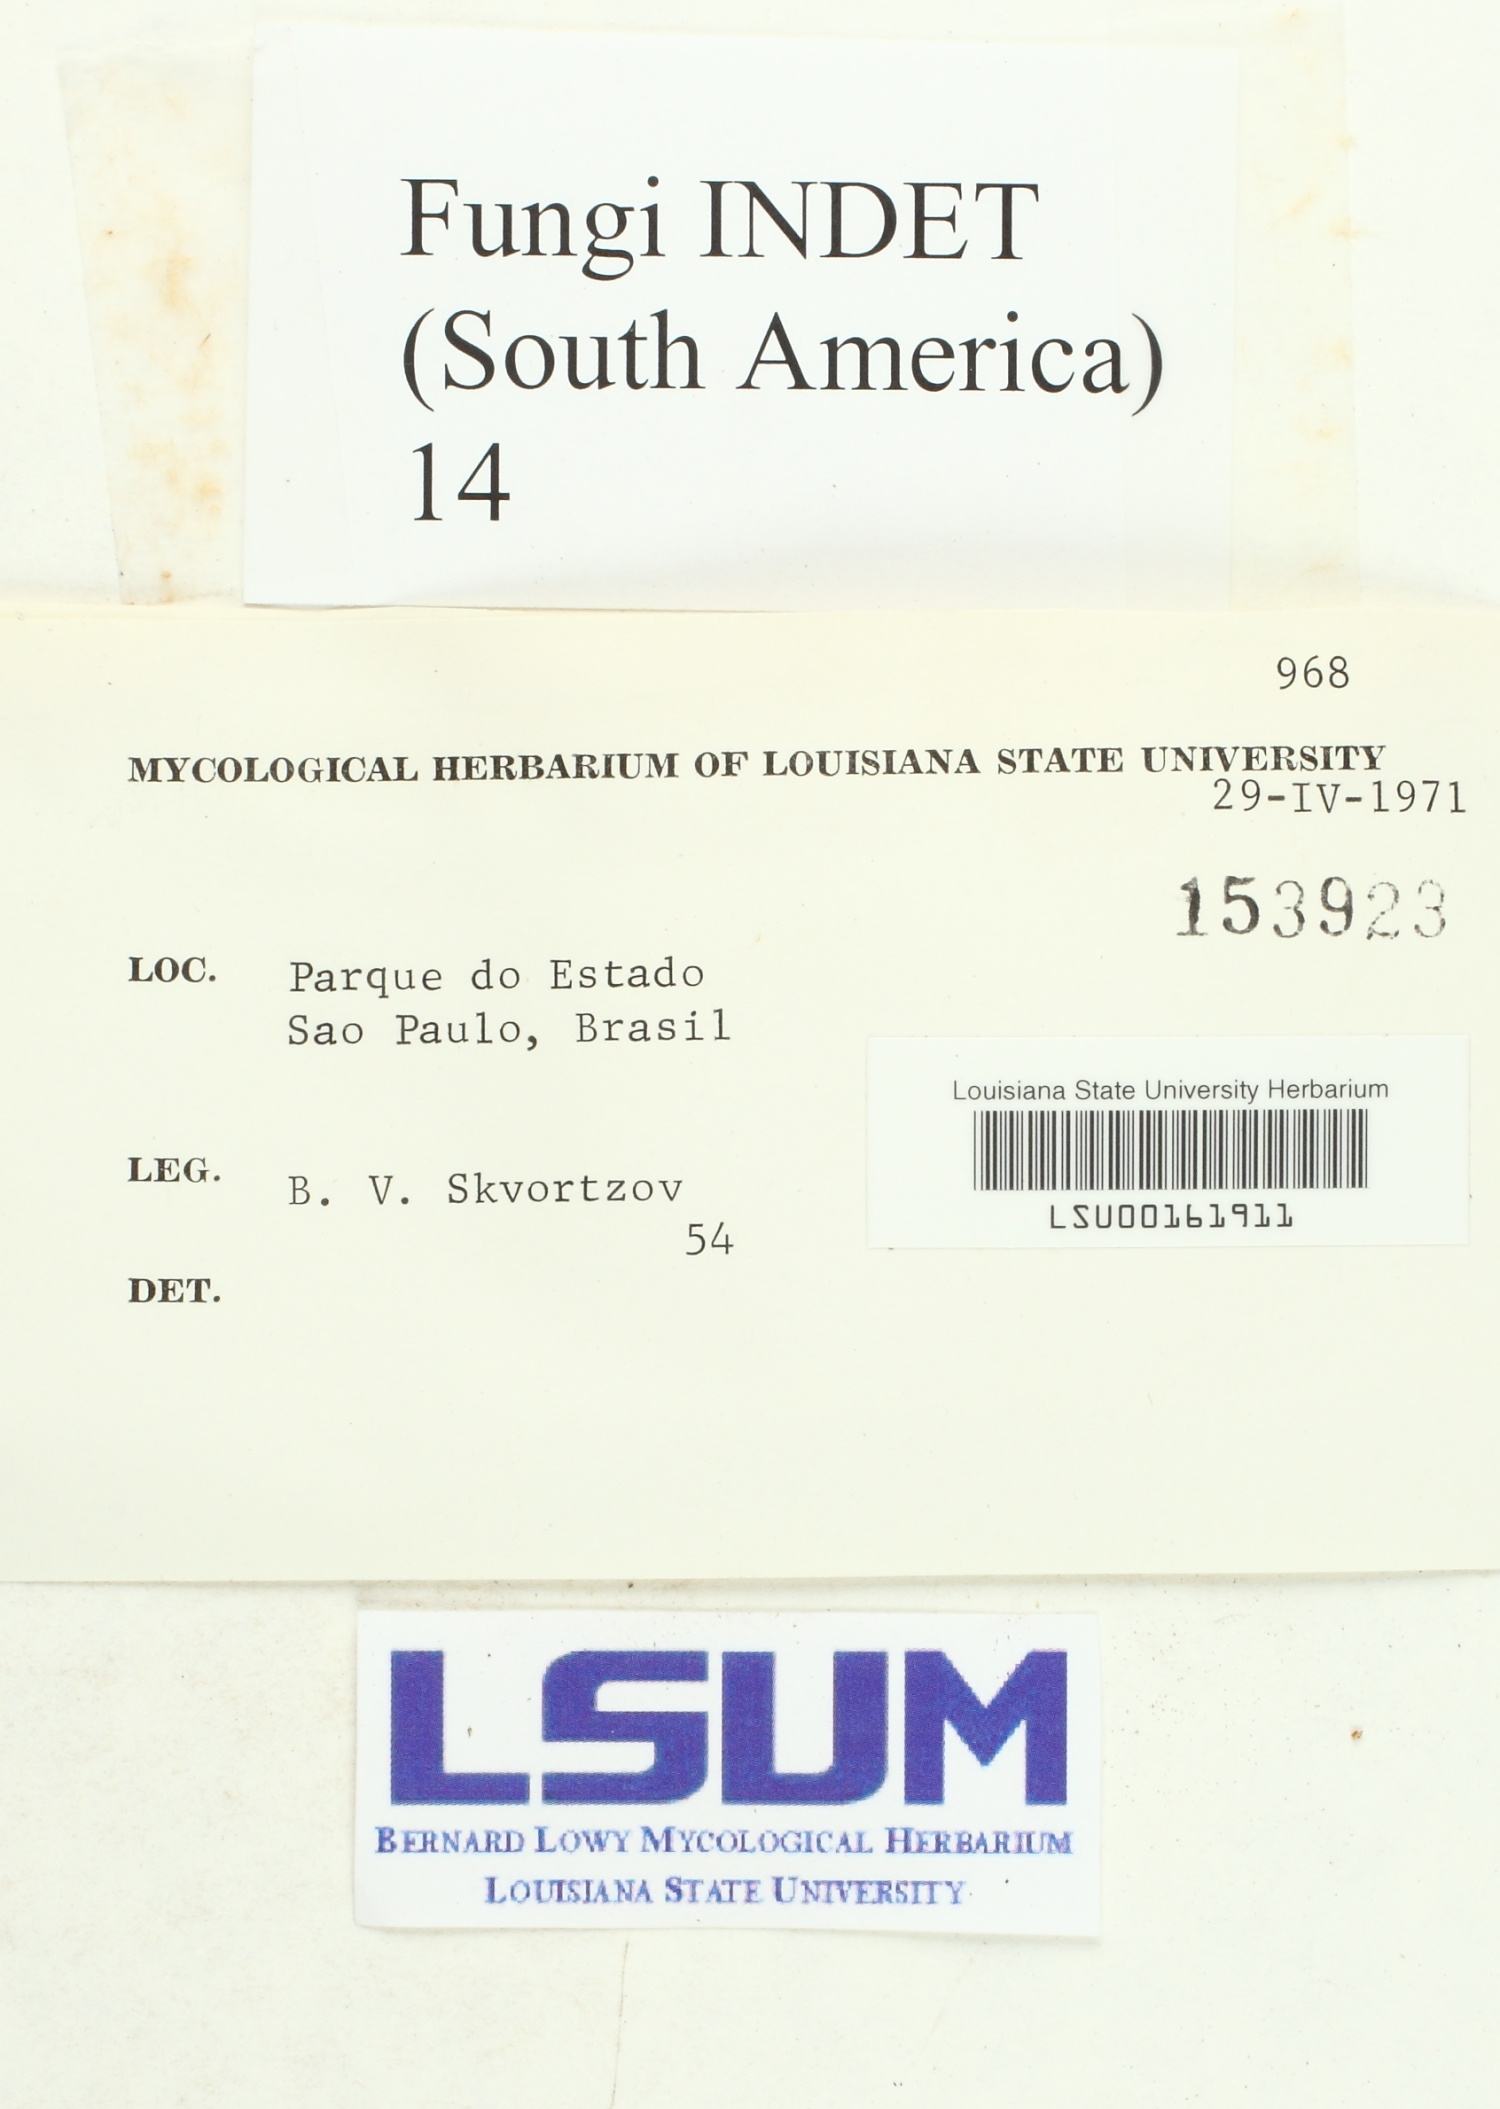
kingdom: Fungi
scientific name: Fungi
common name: Fungi
